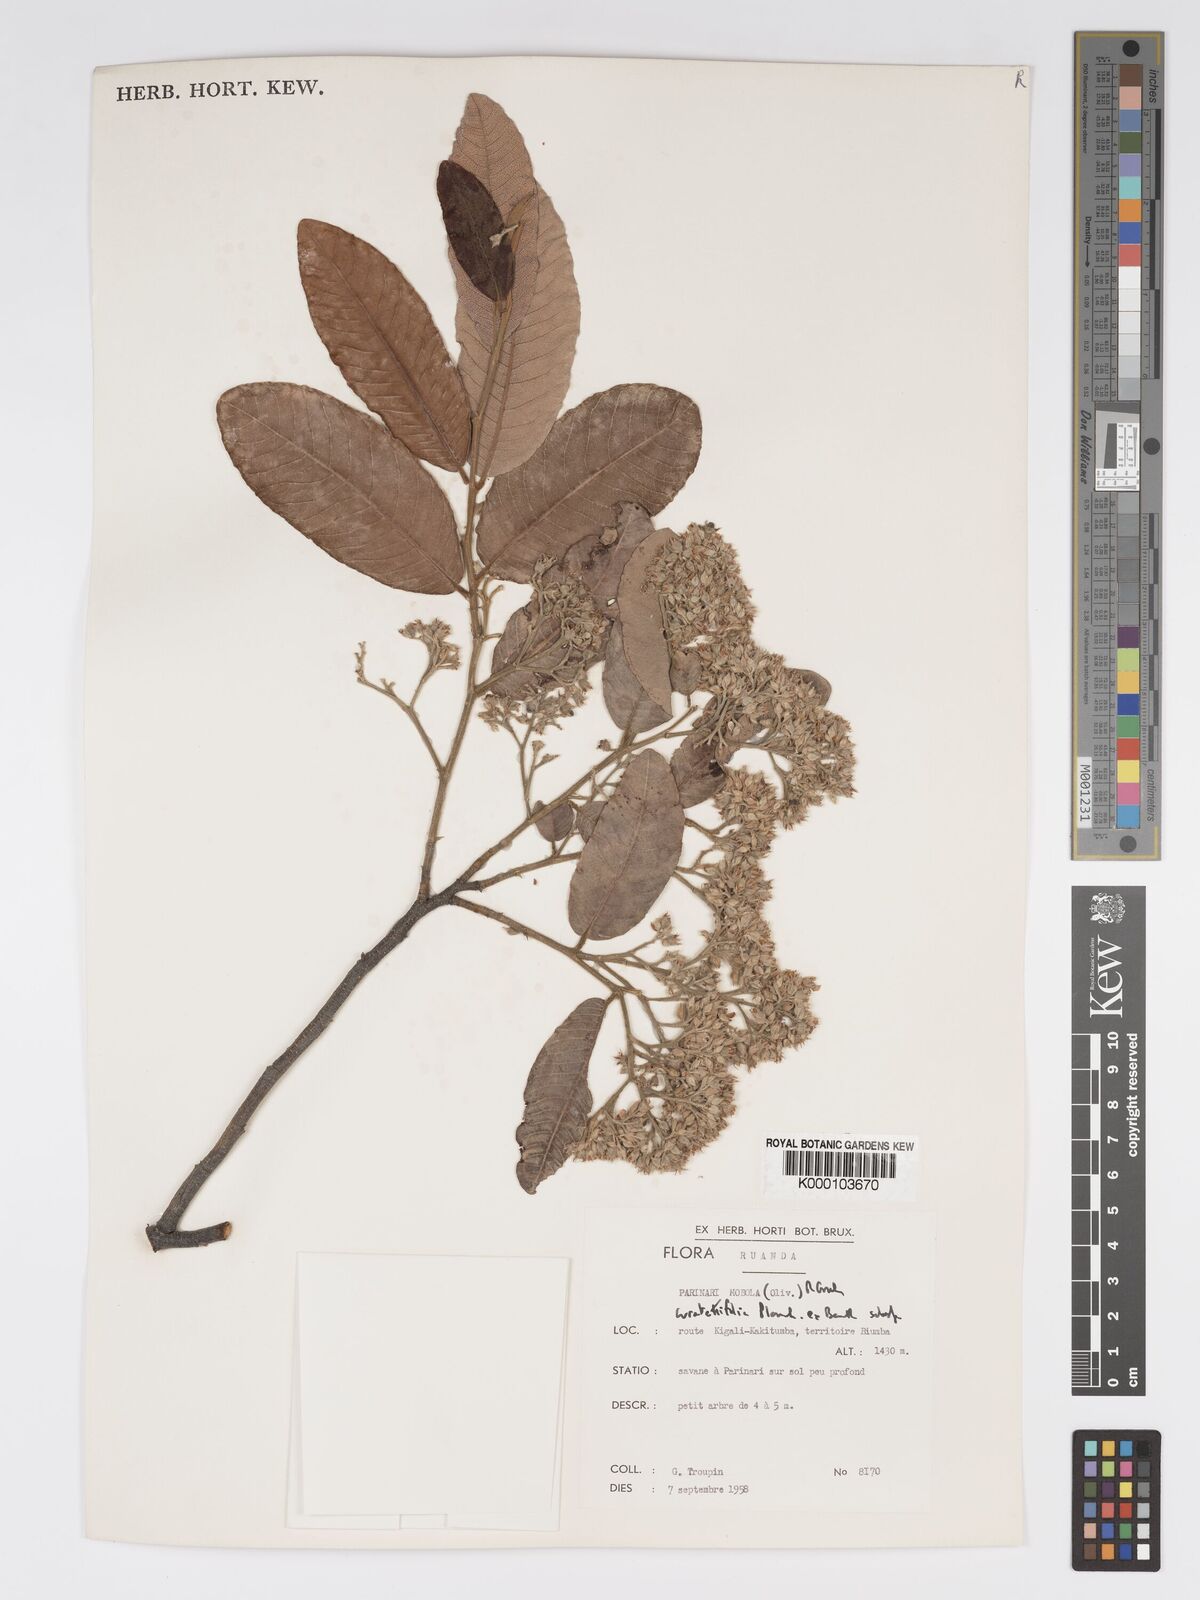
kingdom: Plantae
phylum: Tracheophyta
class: Magnoliopsida
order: Malpighiales
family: Chrysobalanaceae
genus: Parinari
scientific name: Parinari curatellifolia
